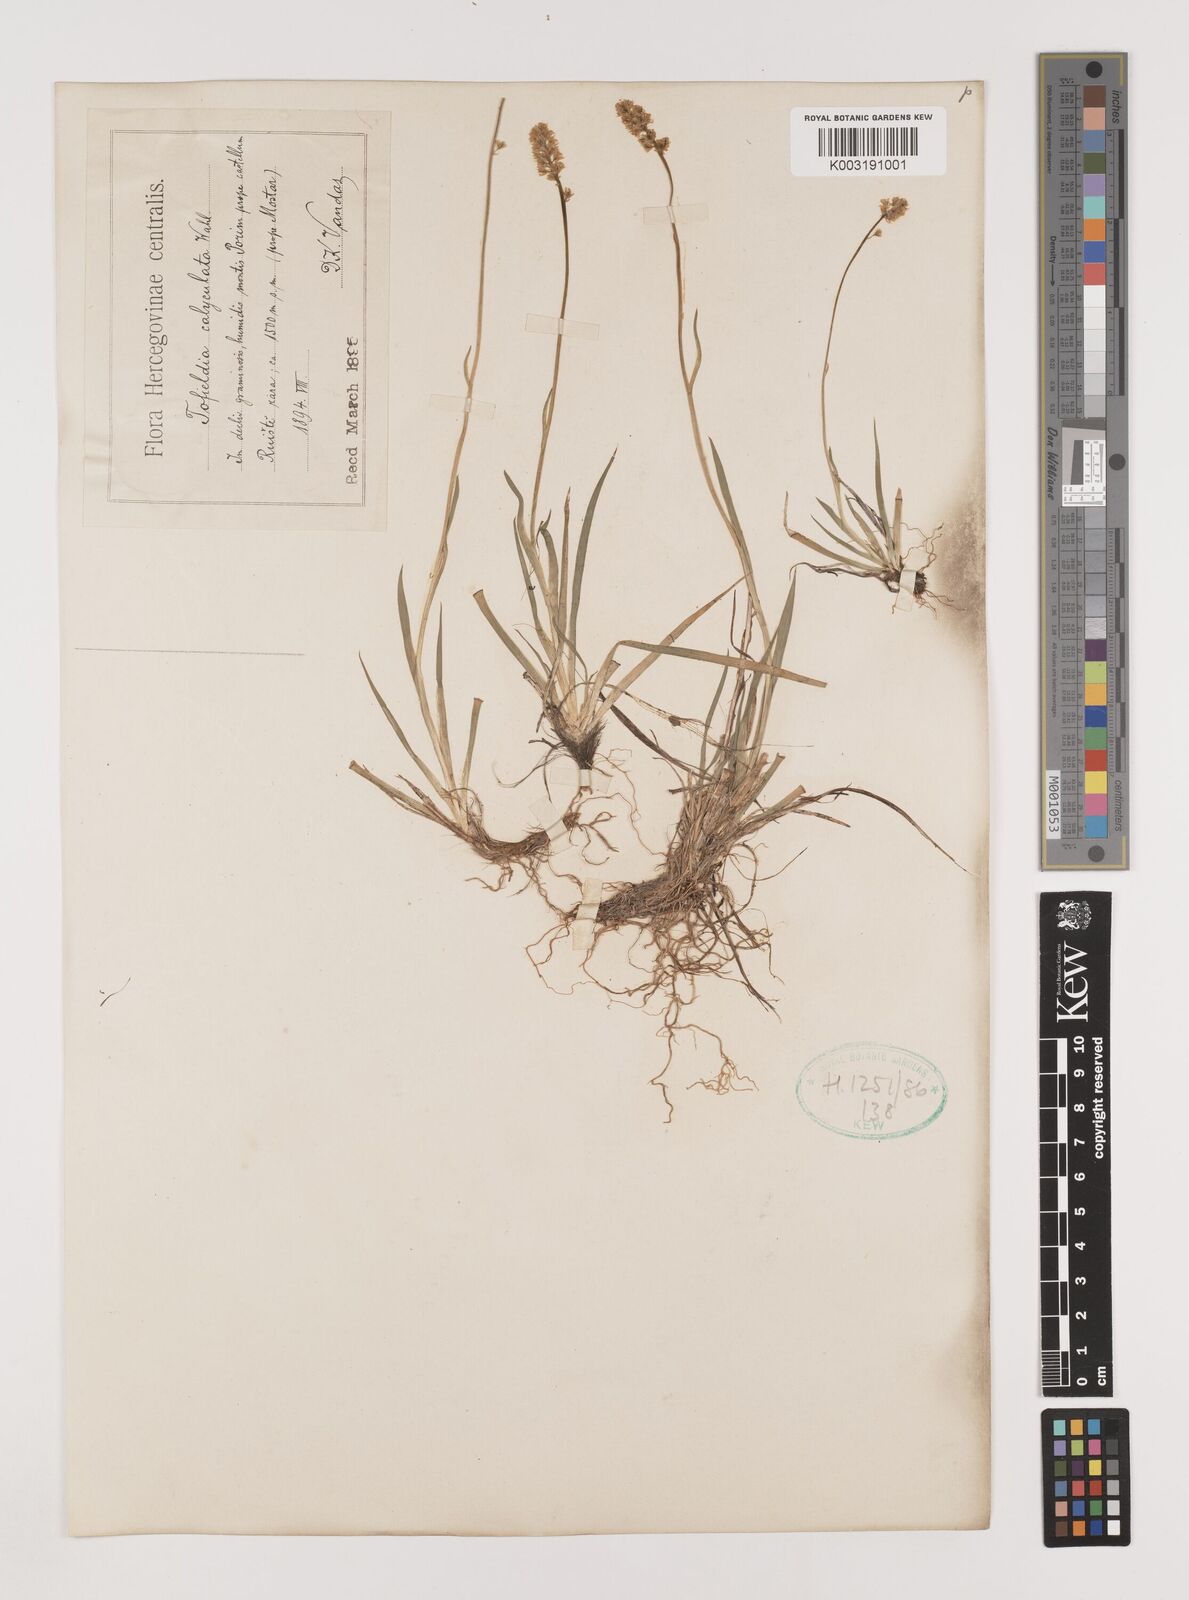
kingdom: Plantae
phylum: Tracheophyta
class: Liliopsida
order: Alismatales
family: Tofieldiaceae
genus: Tofieldia
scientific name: Tofieldia calyculata
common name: German-asphodel
